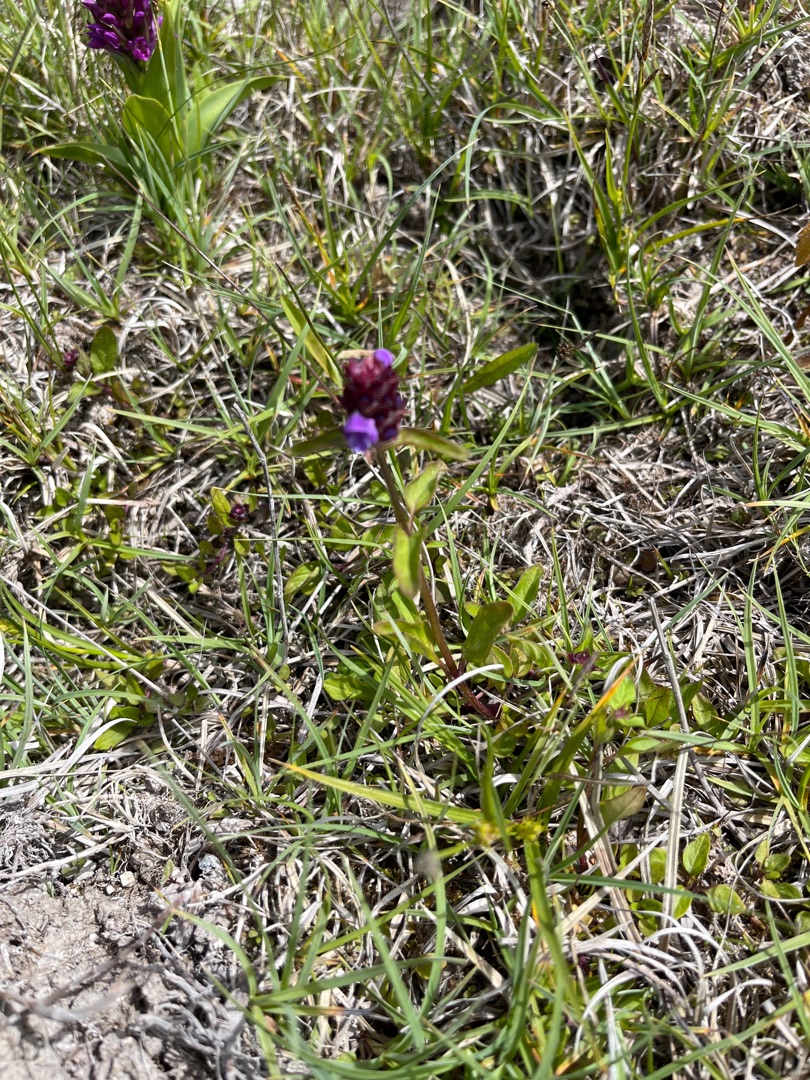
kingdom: Plantae
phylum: Tracheophyta
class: Magnoliopsida
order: Lamiales
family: Lamiaceae
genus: Prunella
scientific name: Prunella vulgaris
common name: Almindelig brunelle
